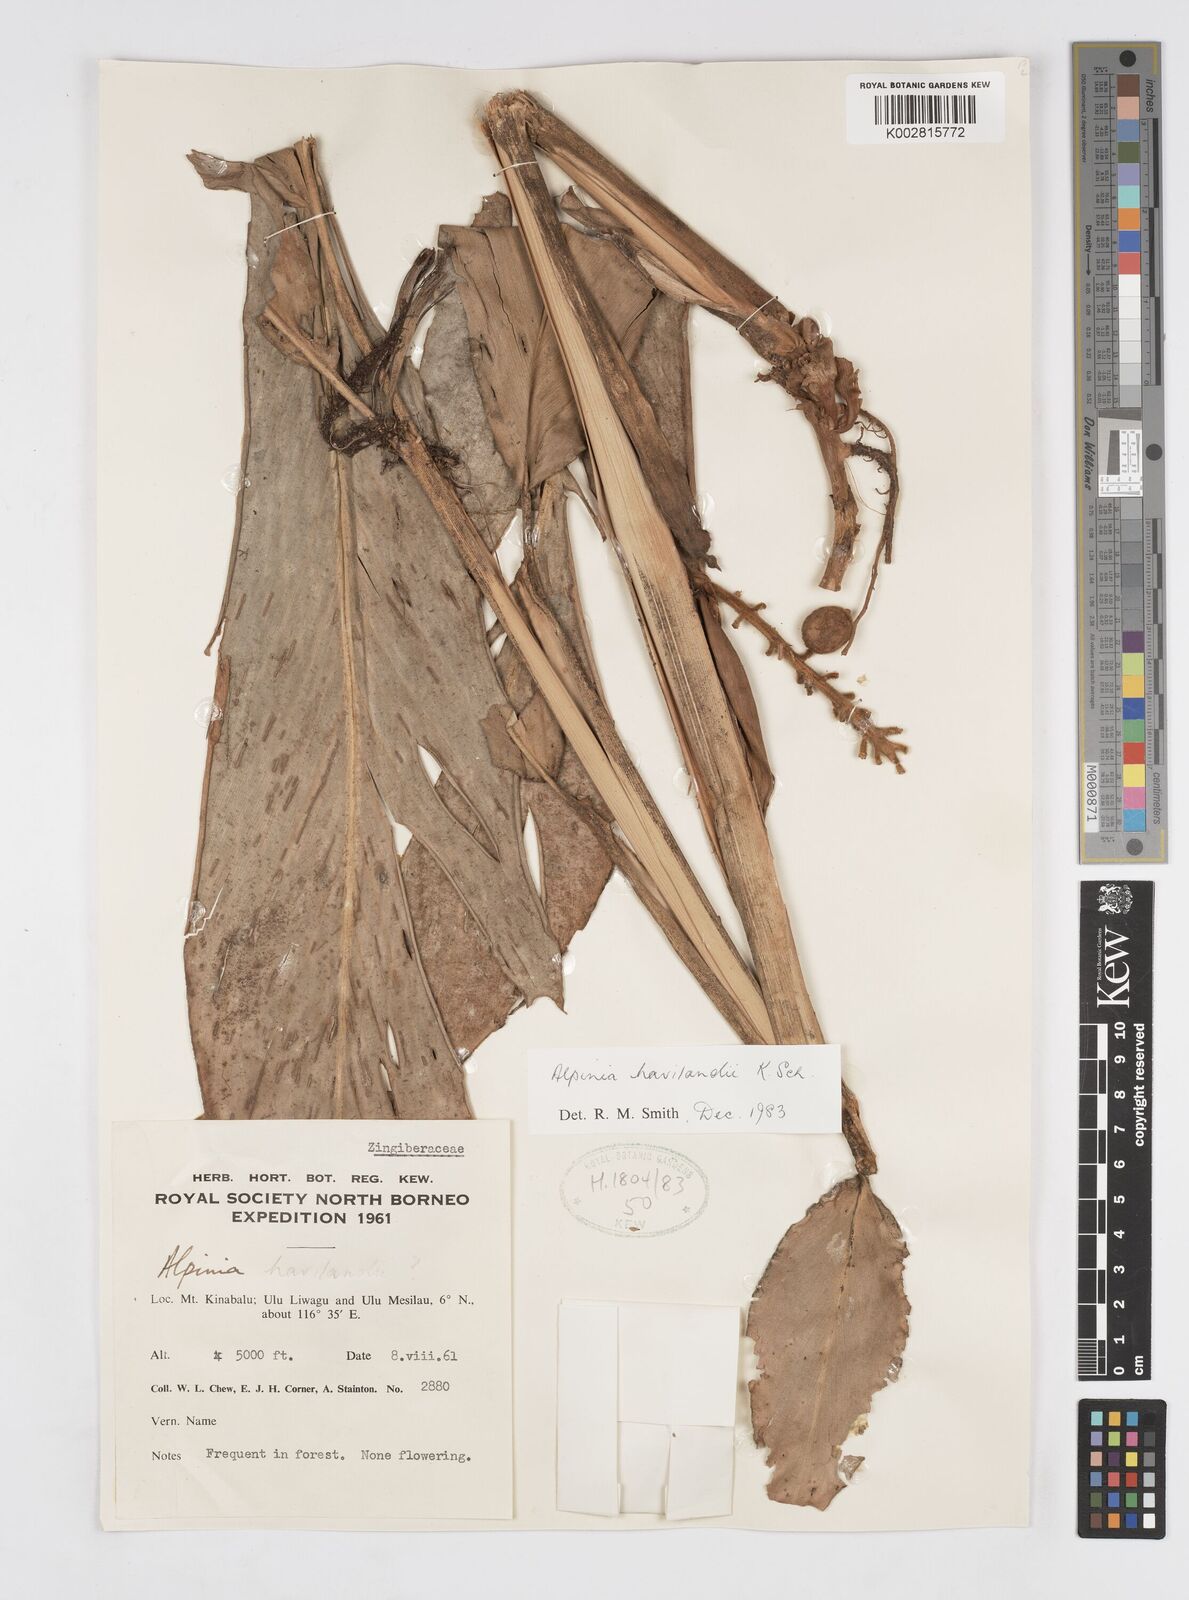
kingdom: Plantae
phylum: Tracheophyta
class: Liliopsida
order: Zingiberales
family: Zingiberaceae
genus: Alpinia
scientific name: Alpinia havilandii
